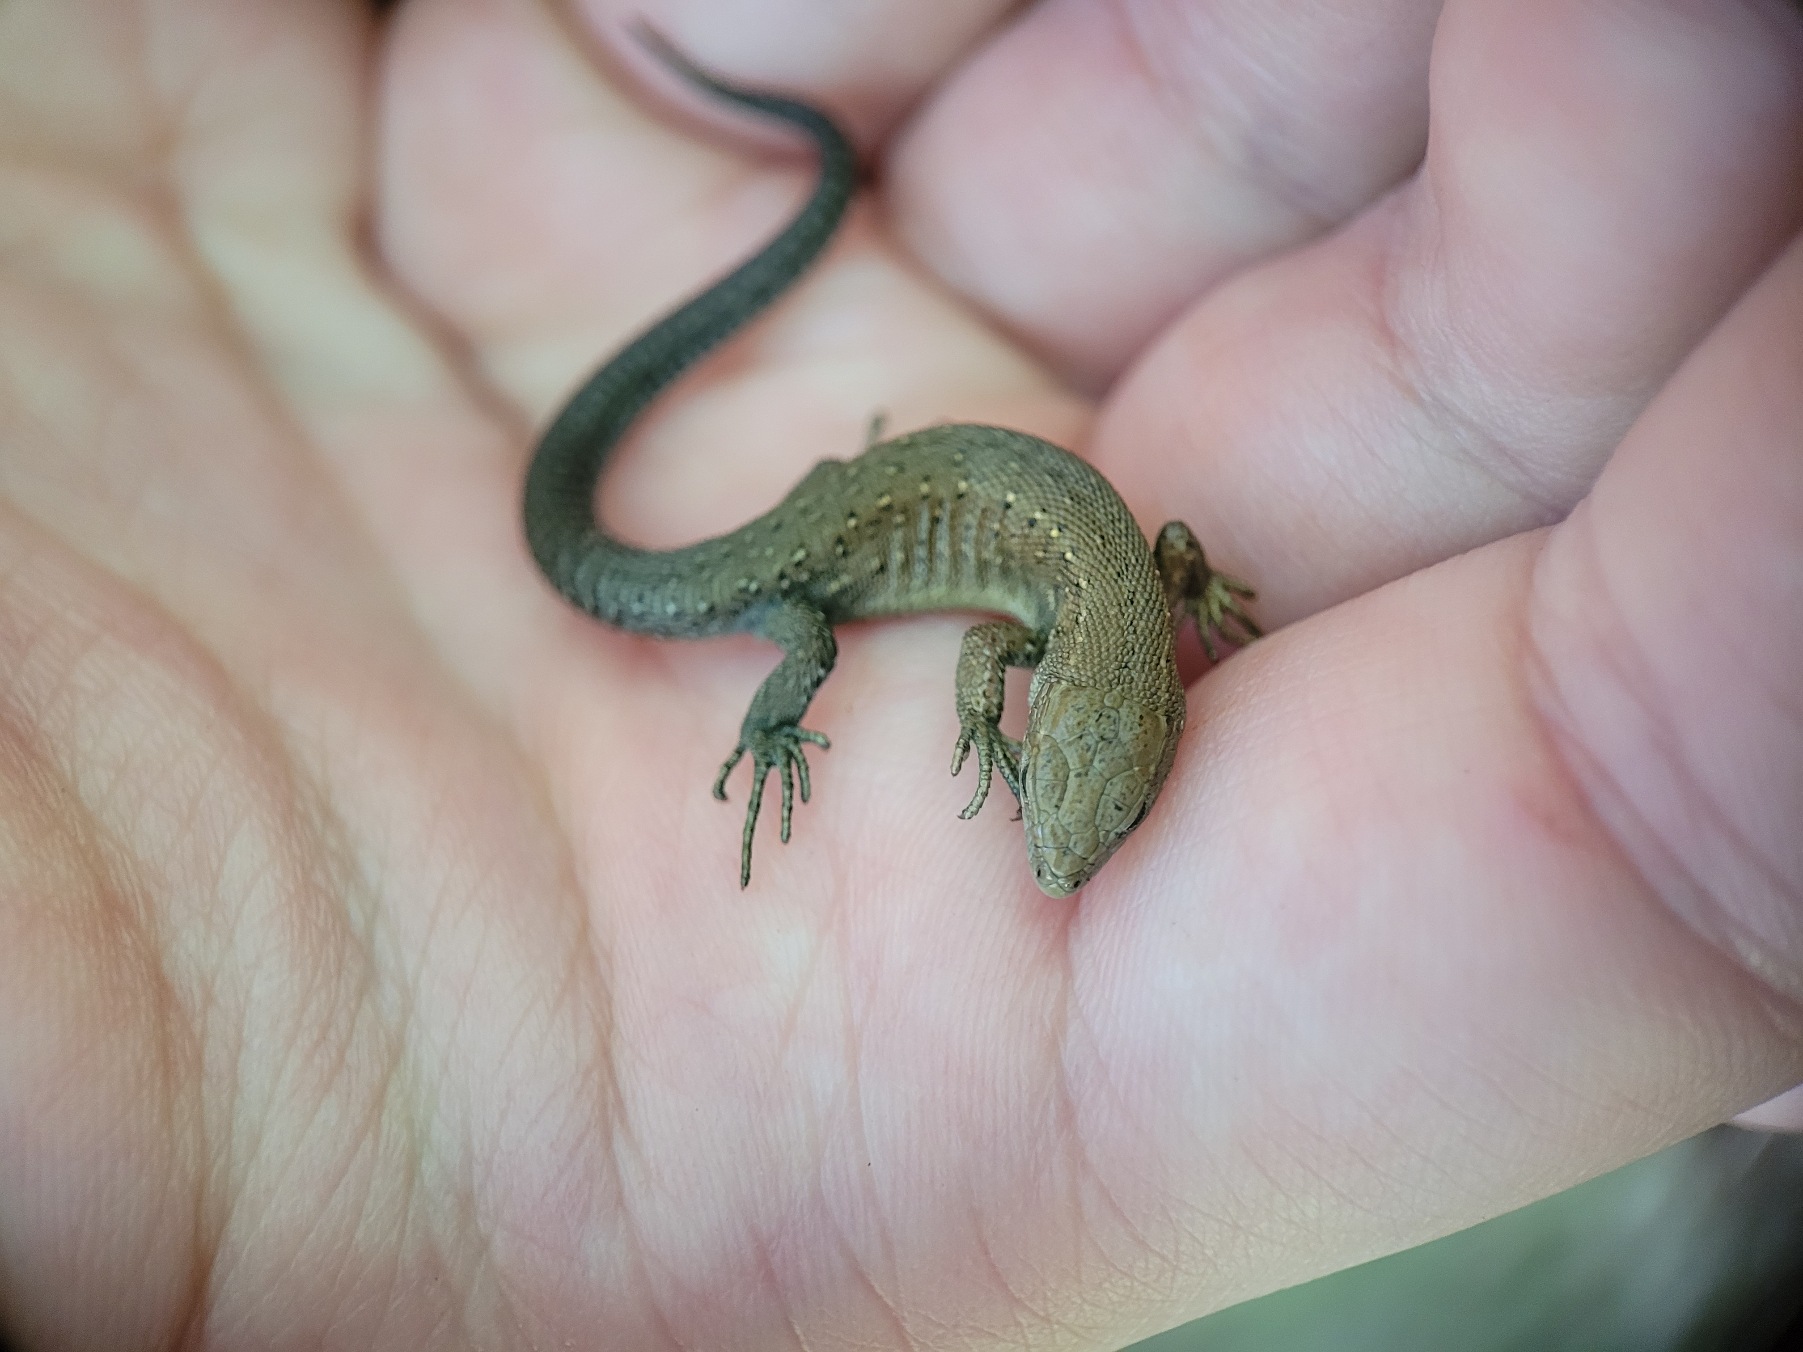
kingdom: Animalia
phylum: Chordata
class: Squamata
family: Lacertidae
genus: Zootoca
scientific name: Zootoca vivipara
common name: Skovfirben
